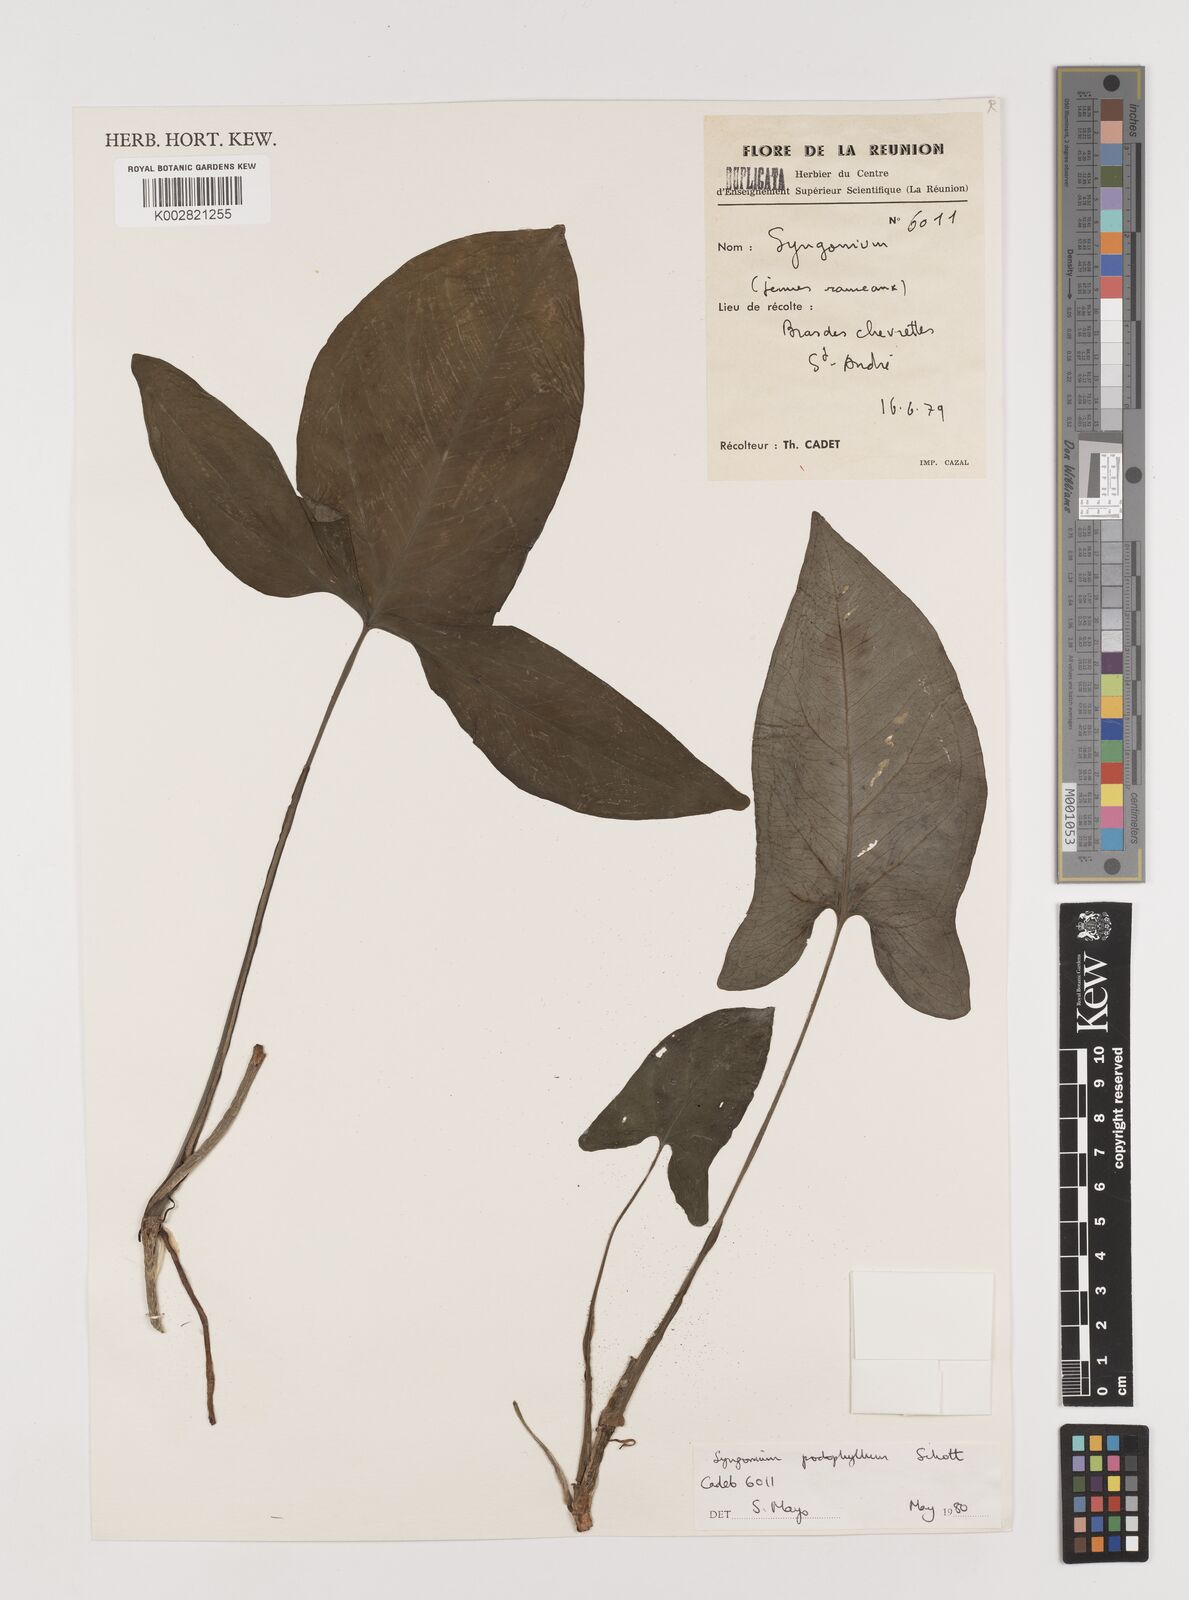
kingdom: Plantae
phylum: Tracheophyta
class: Liliopsida
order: Alismatales
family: Araceae
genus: Syngonium
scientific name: Syngonium podophyllum
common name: American evergreen
